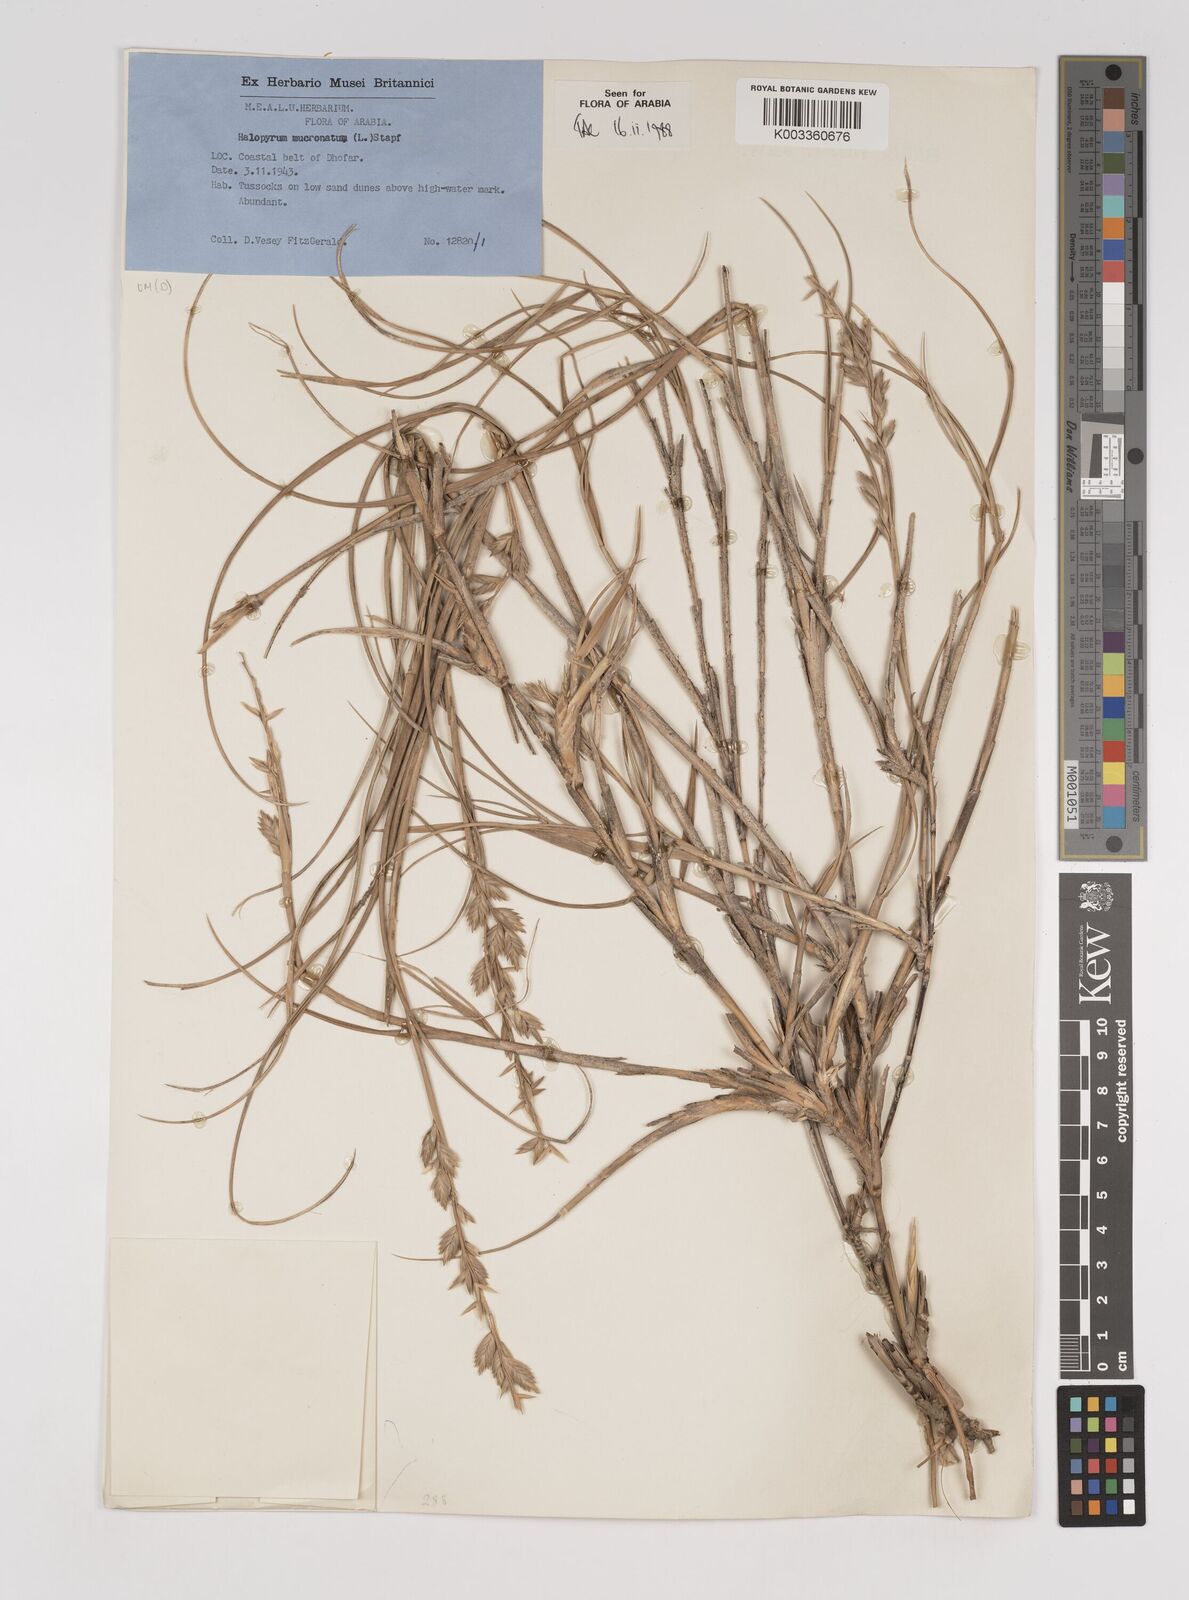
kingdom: Plantae
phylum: Tracheophyta
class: Liliopsida
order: Poales
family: Poaceae
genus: Halopyrum
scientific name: Halopyrum mucronatum
